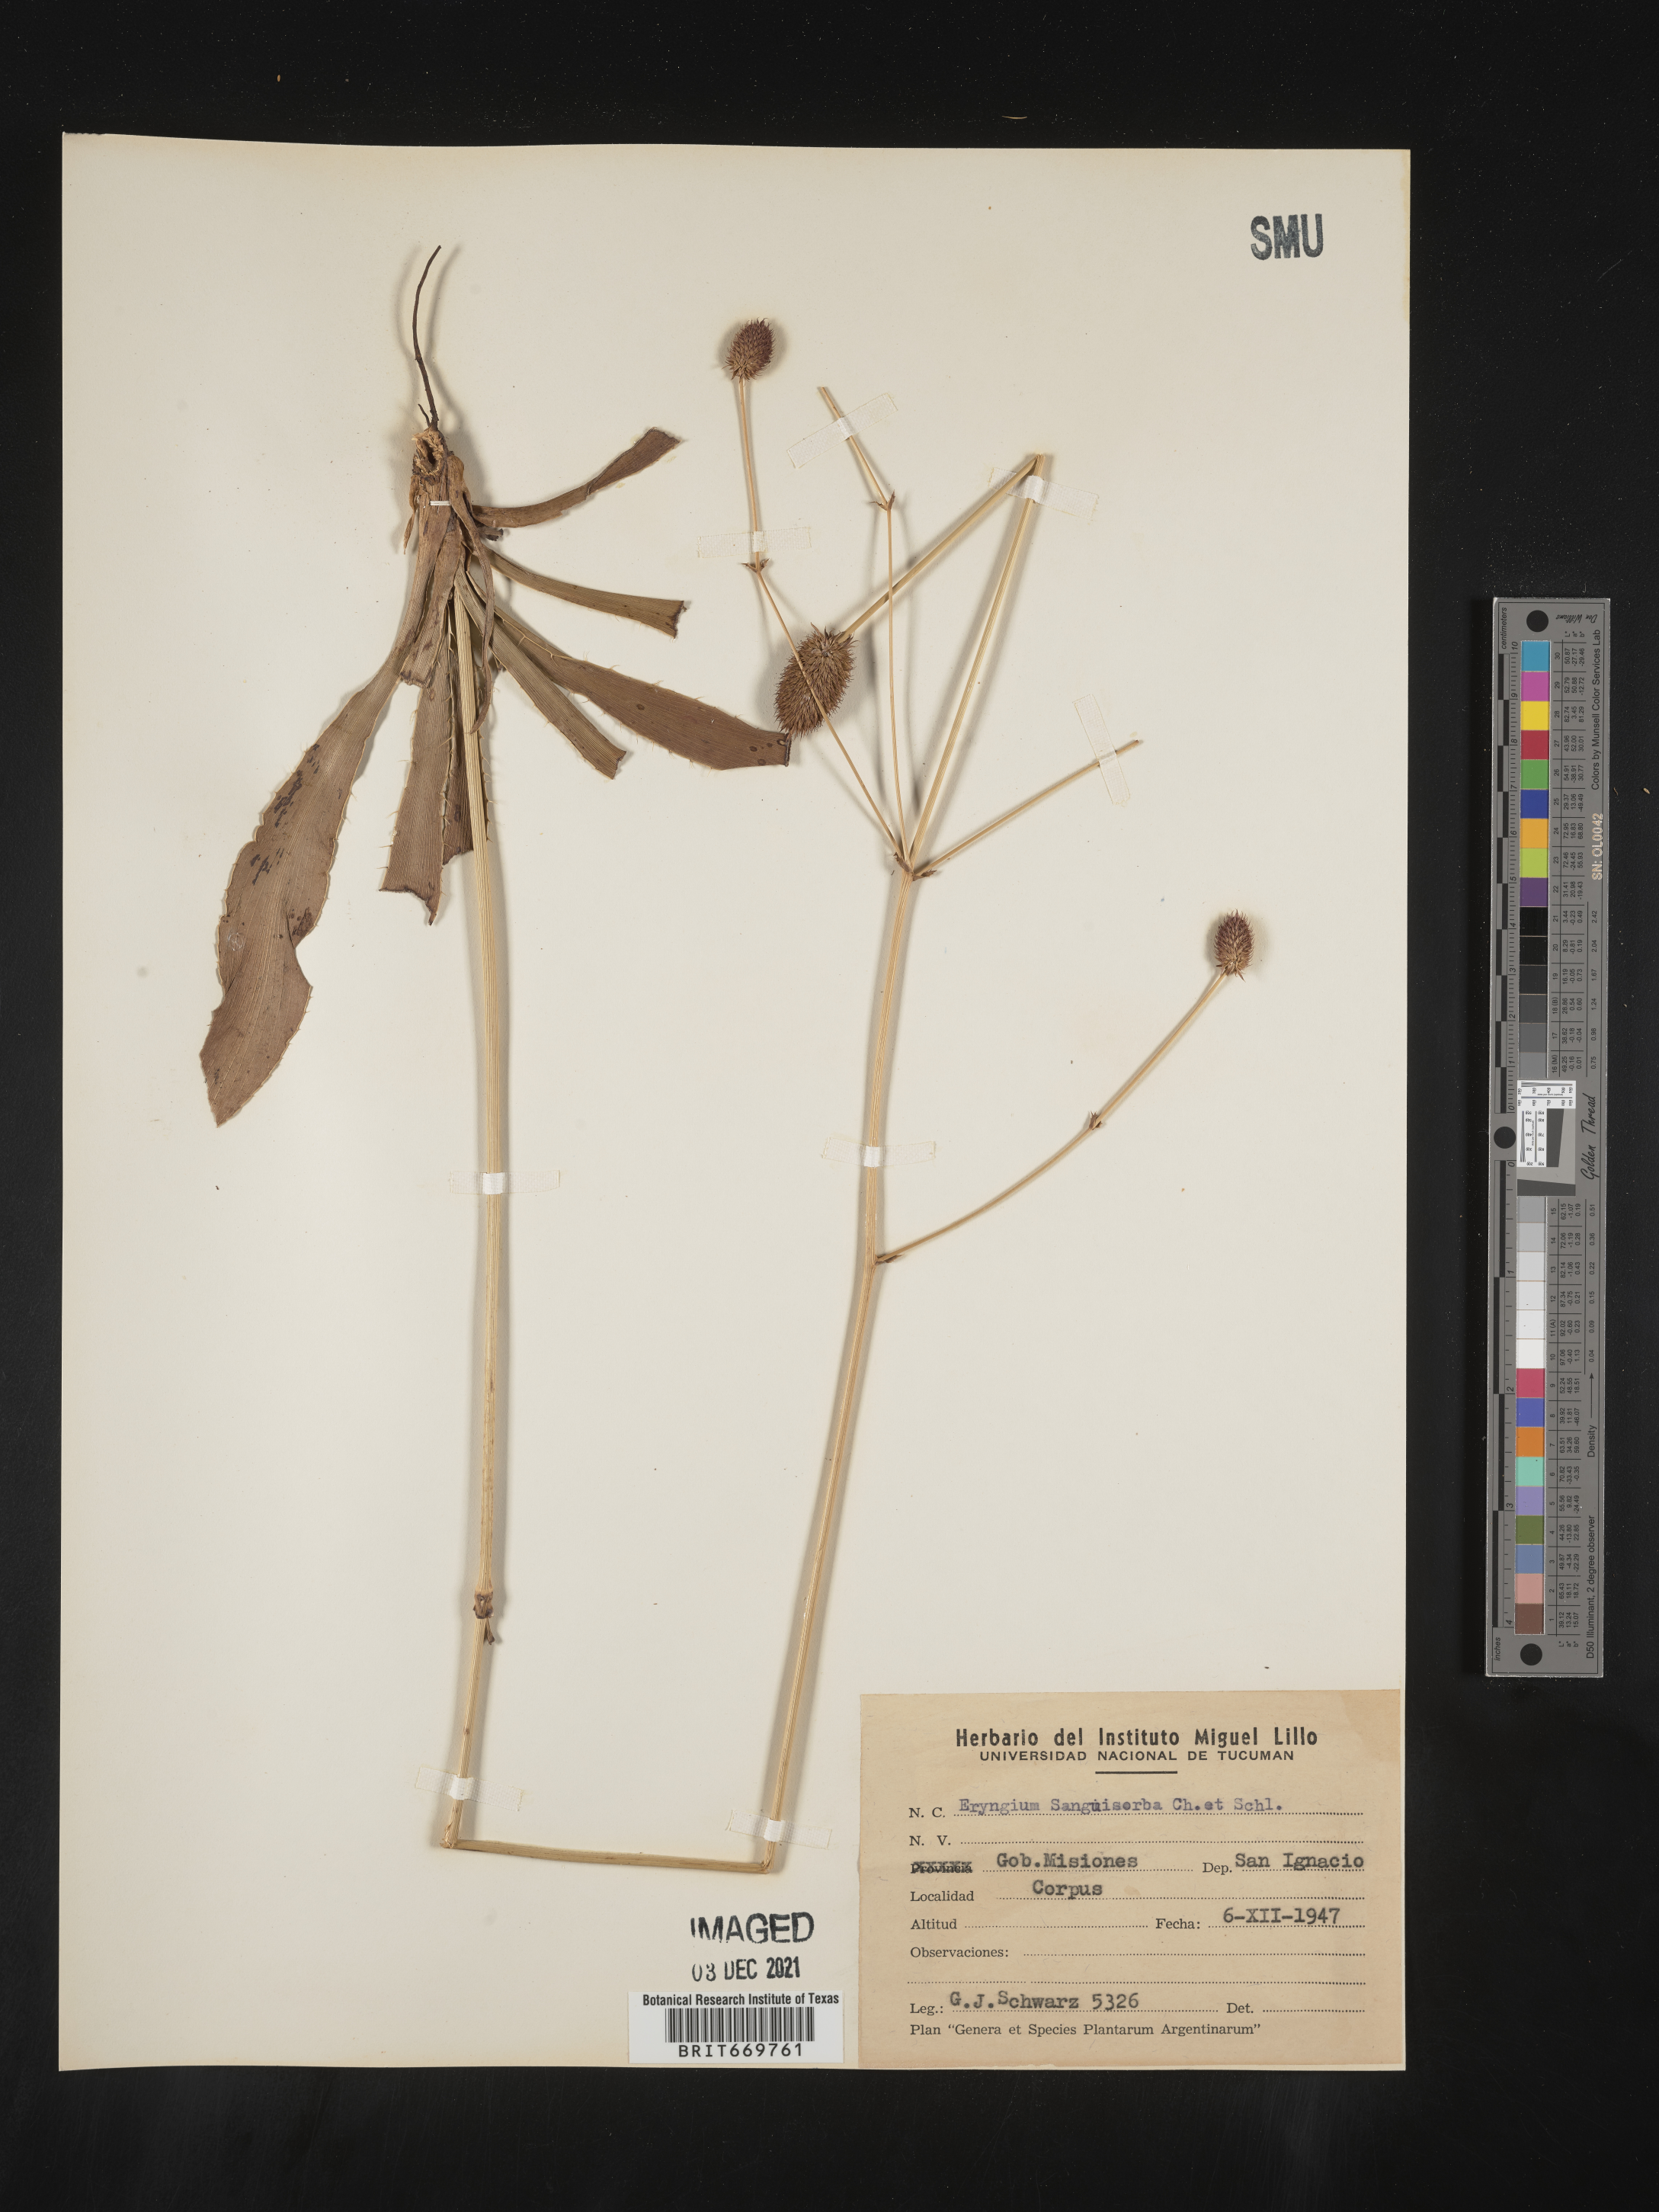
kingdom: Plantae
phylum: Tracheophyta
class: Magnoliopsida
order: Apiales
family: Apiaceae
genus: Eryngium
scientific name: Eryngium
